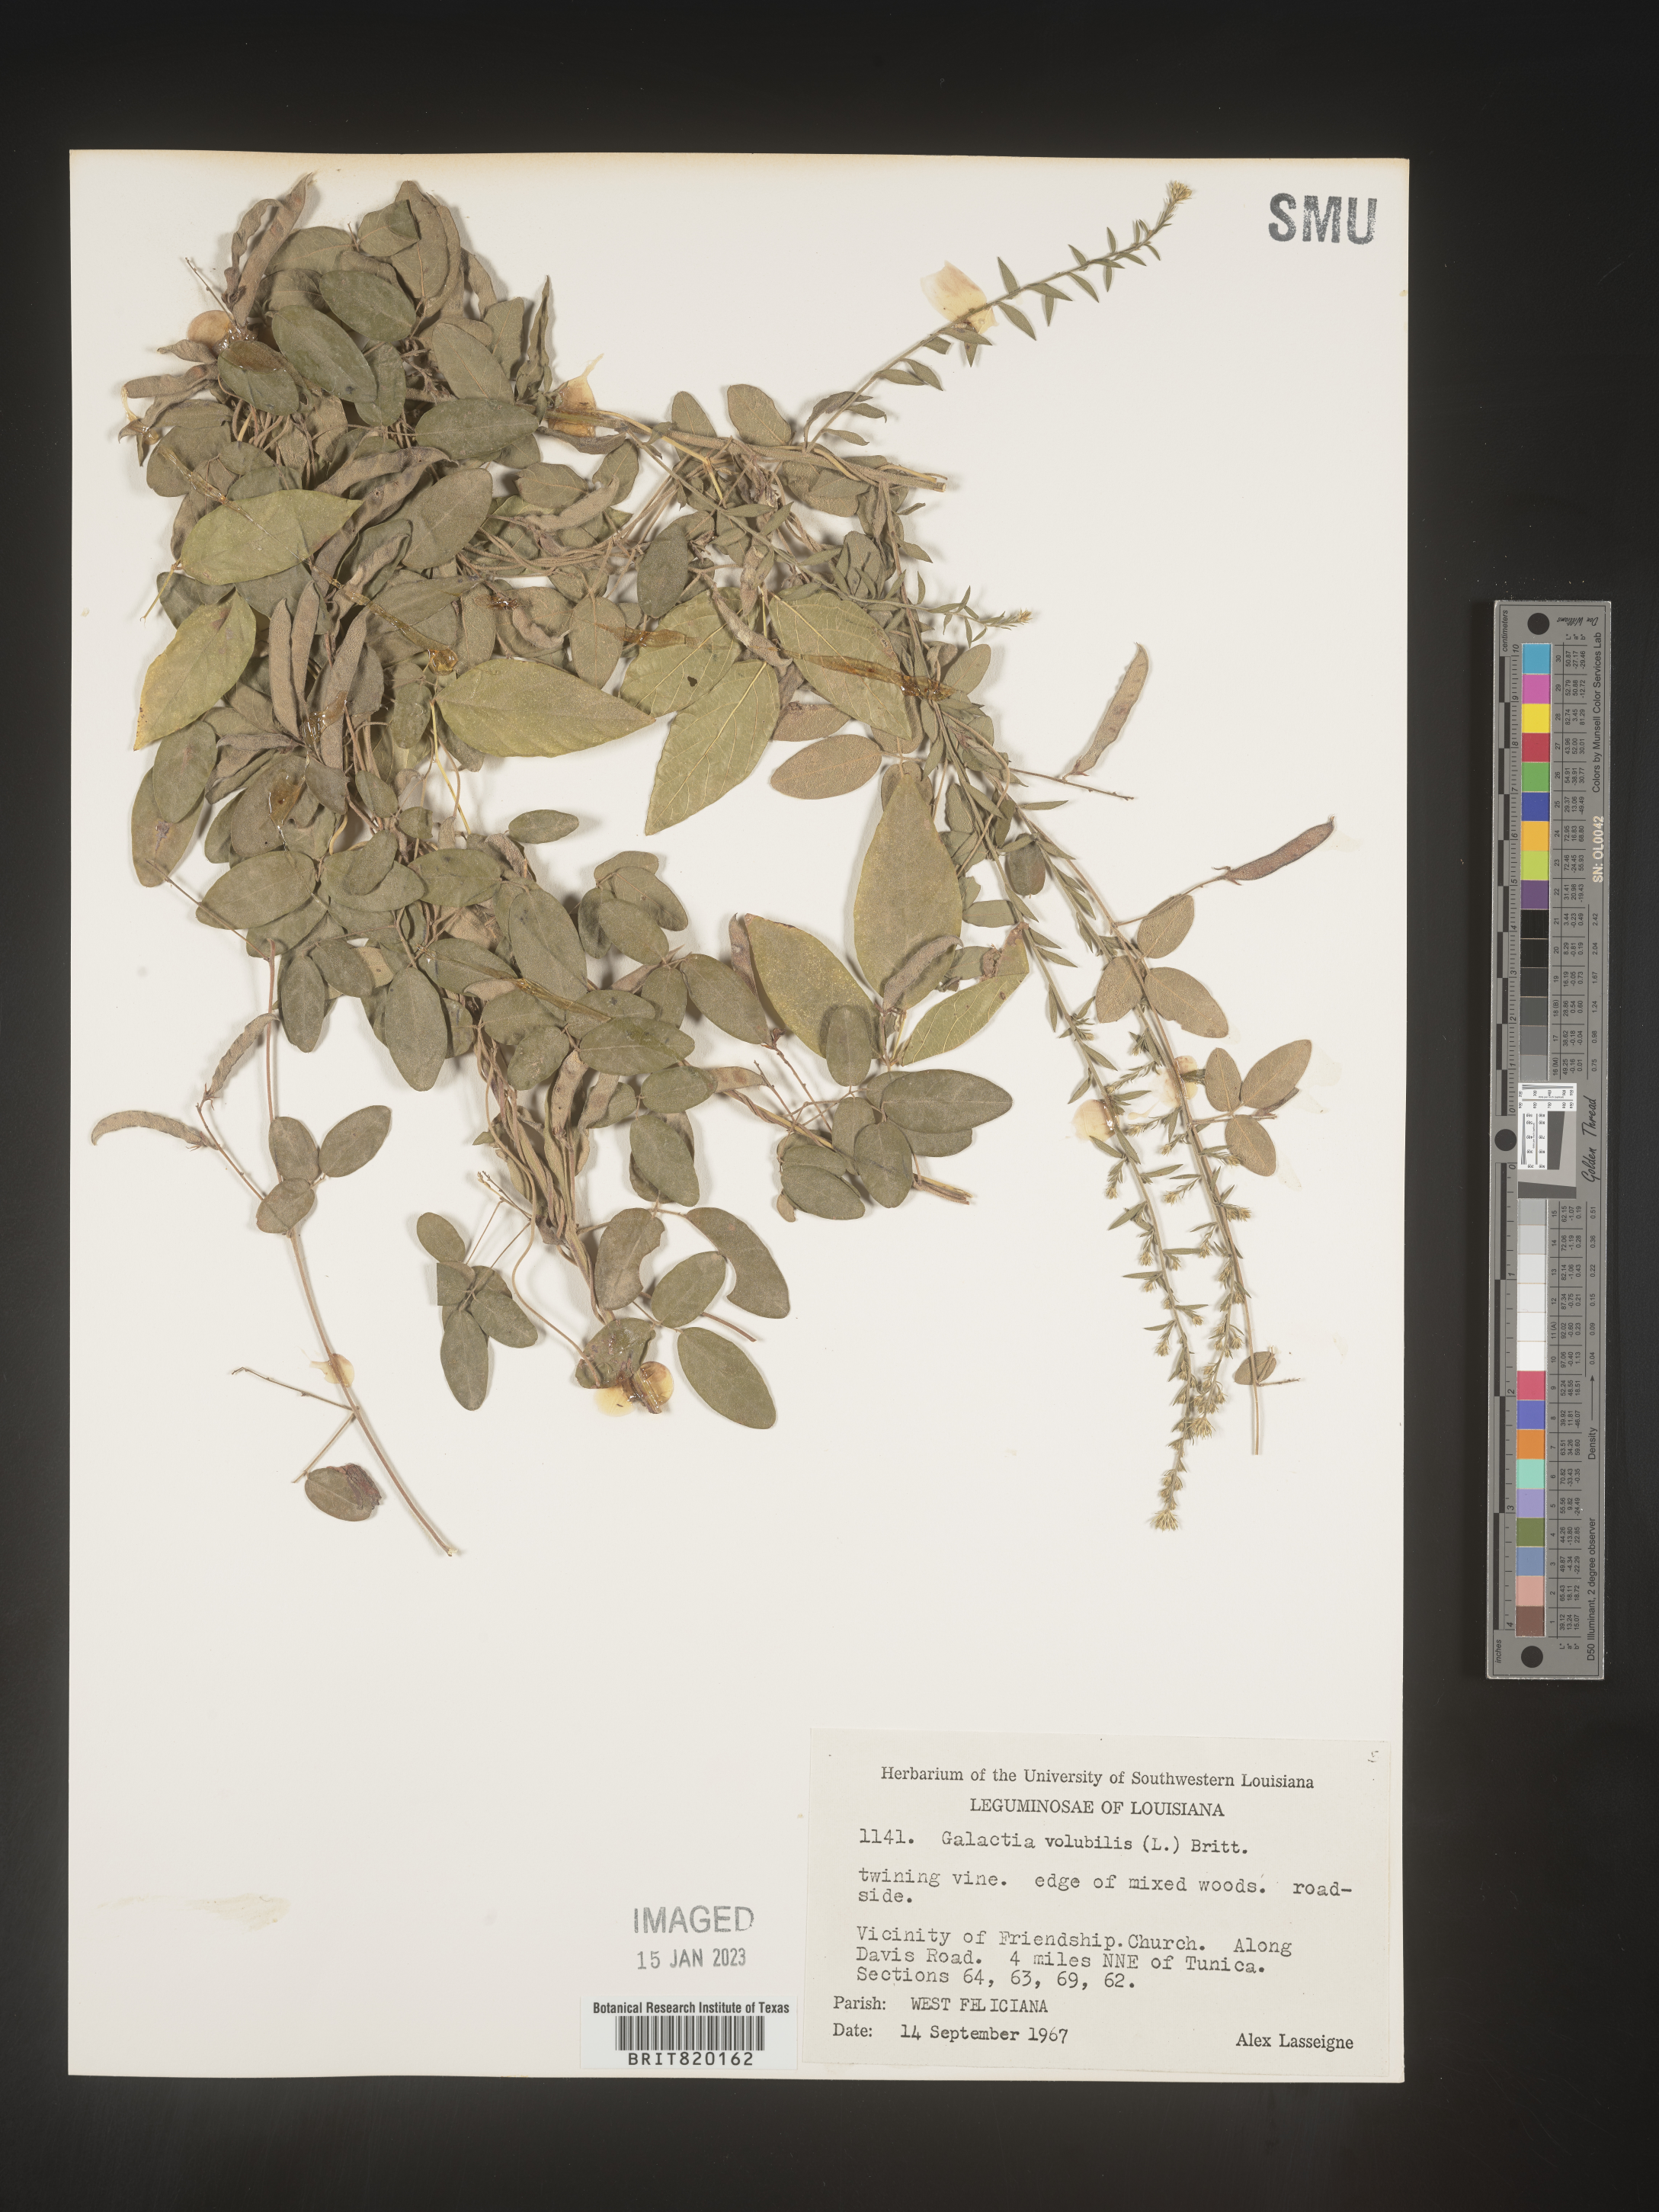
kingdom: Plantae
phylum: Tracheophyta
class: Magnoliopsida
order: Fabales
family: Fabaceae
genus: Galactia
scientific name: Galactia volubilis
